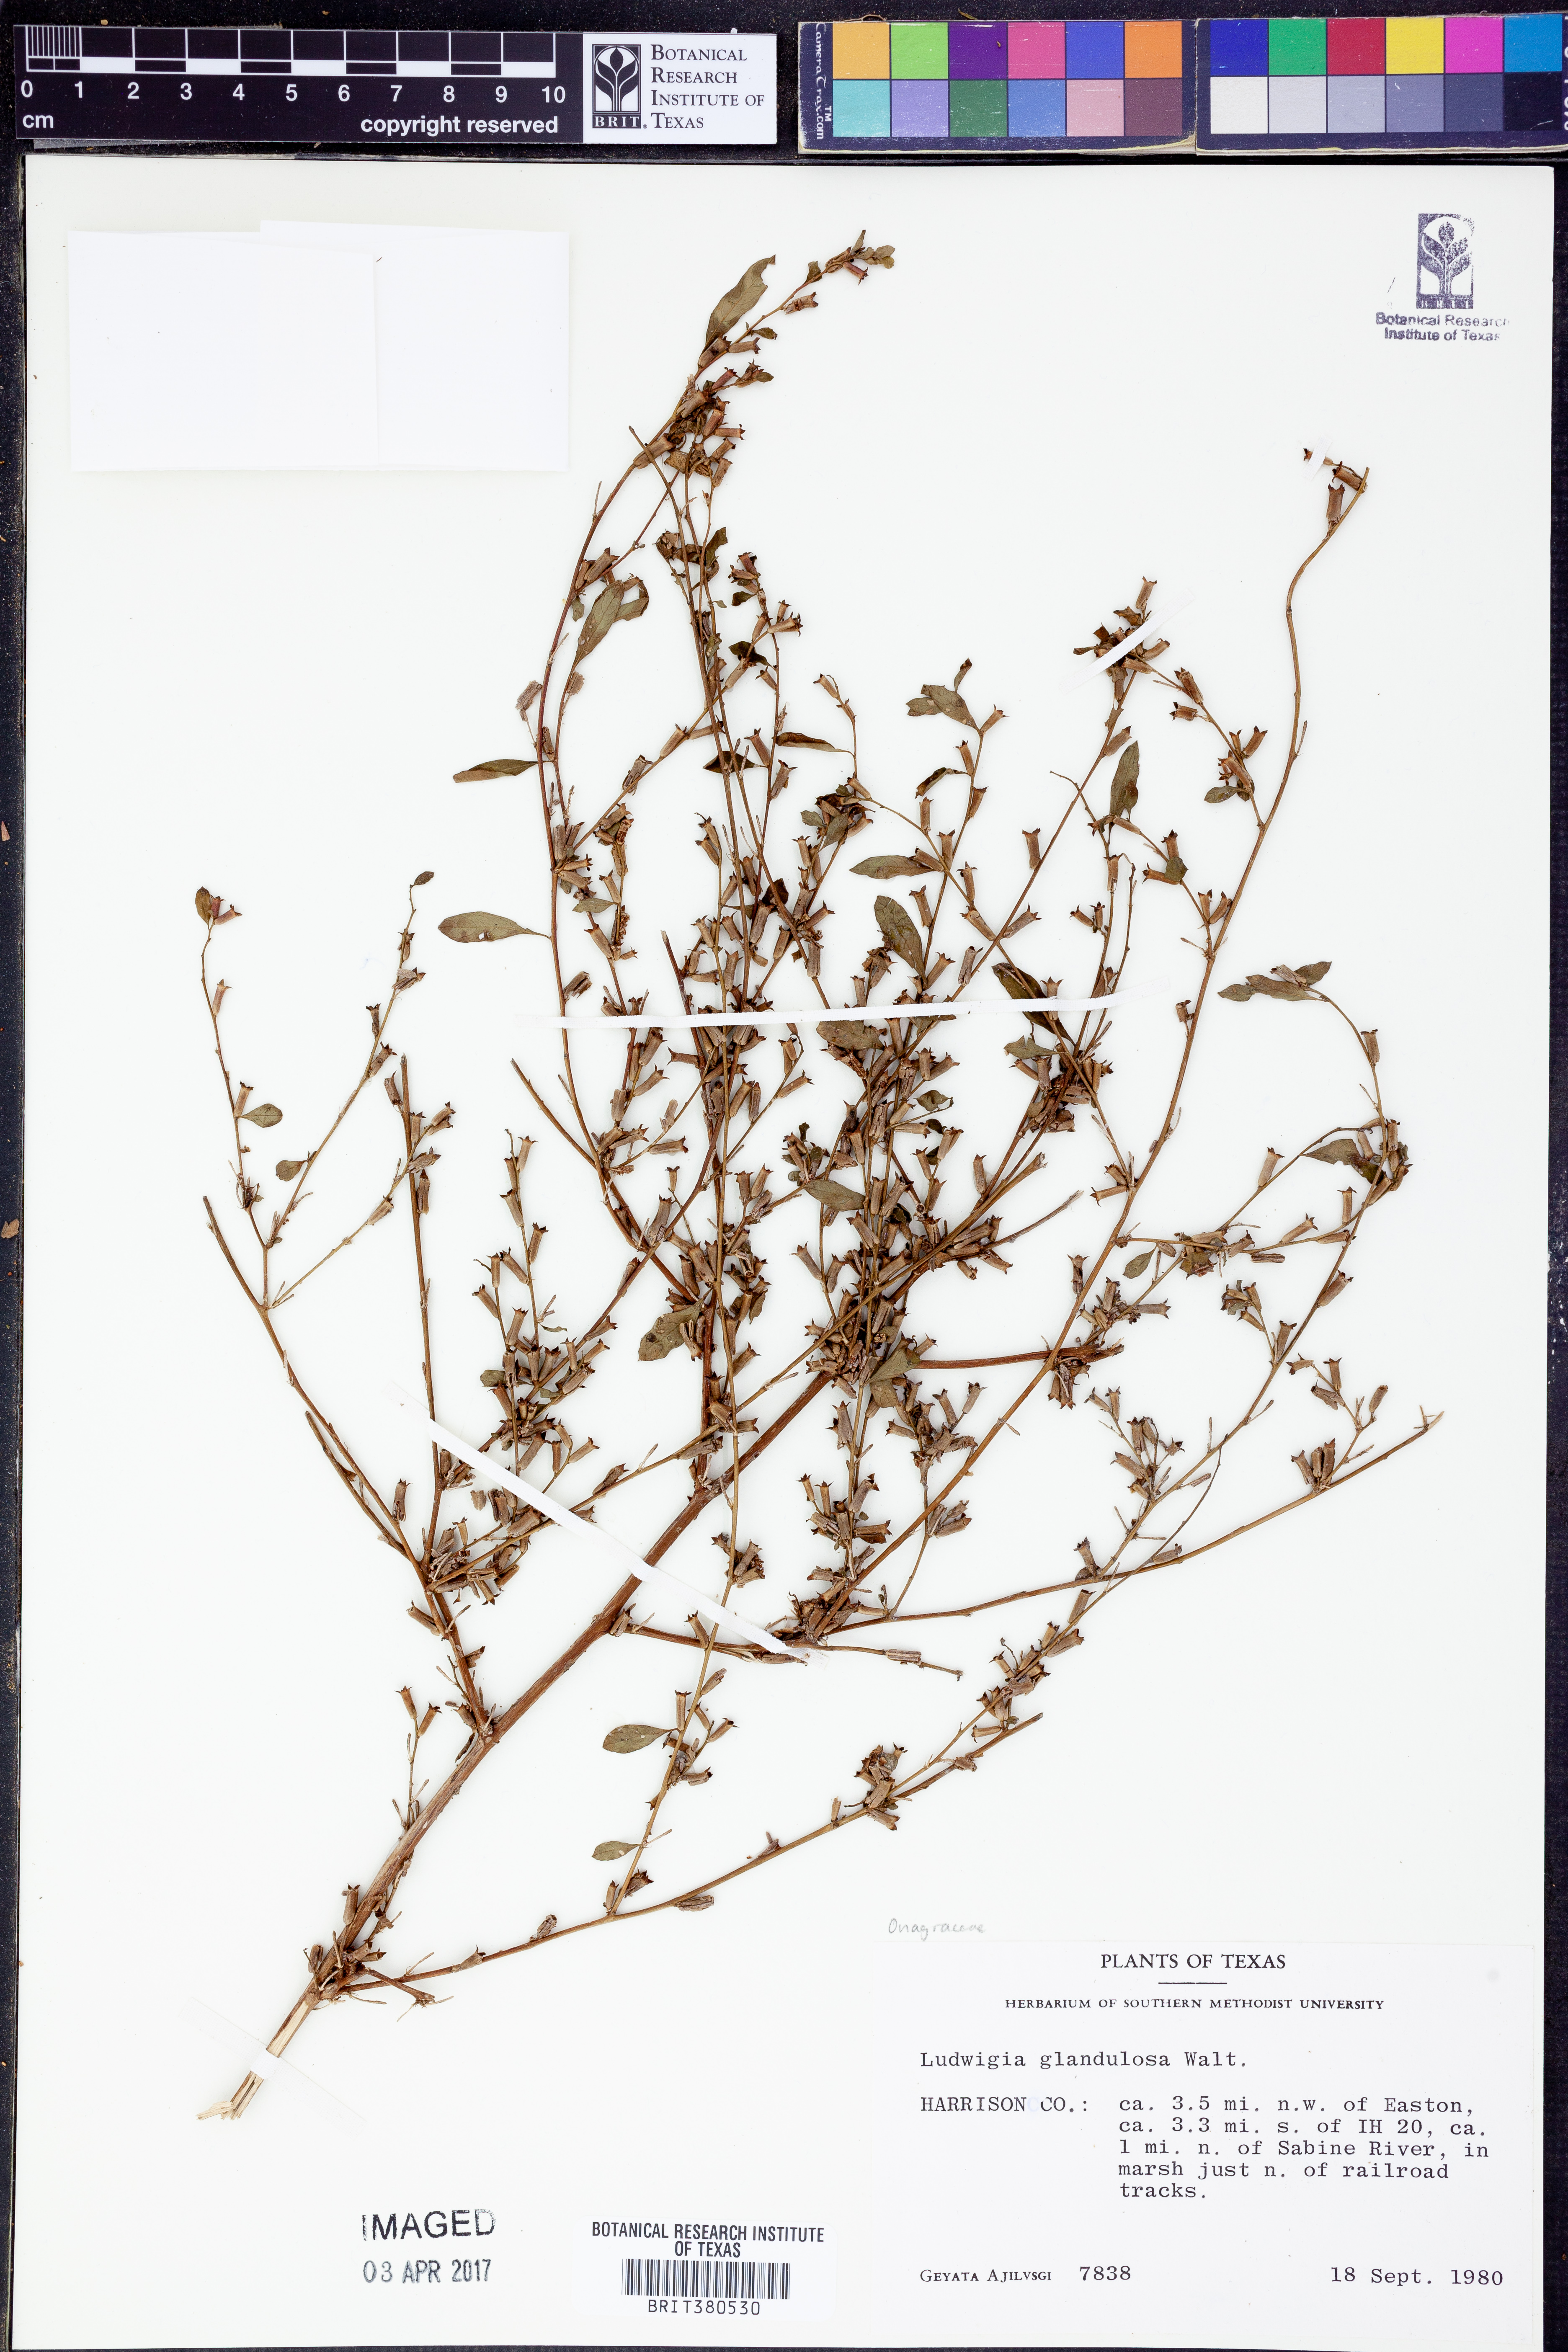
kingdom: Plantae
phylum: Tracheophyta
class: Magnoliopsida
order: Myrtales
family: Onagraceae
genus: Ludwigia
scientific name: Ludwigia glandulosa
